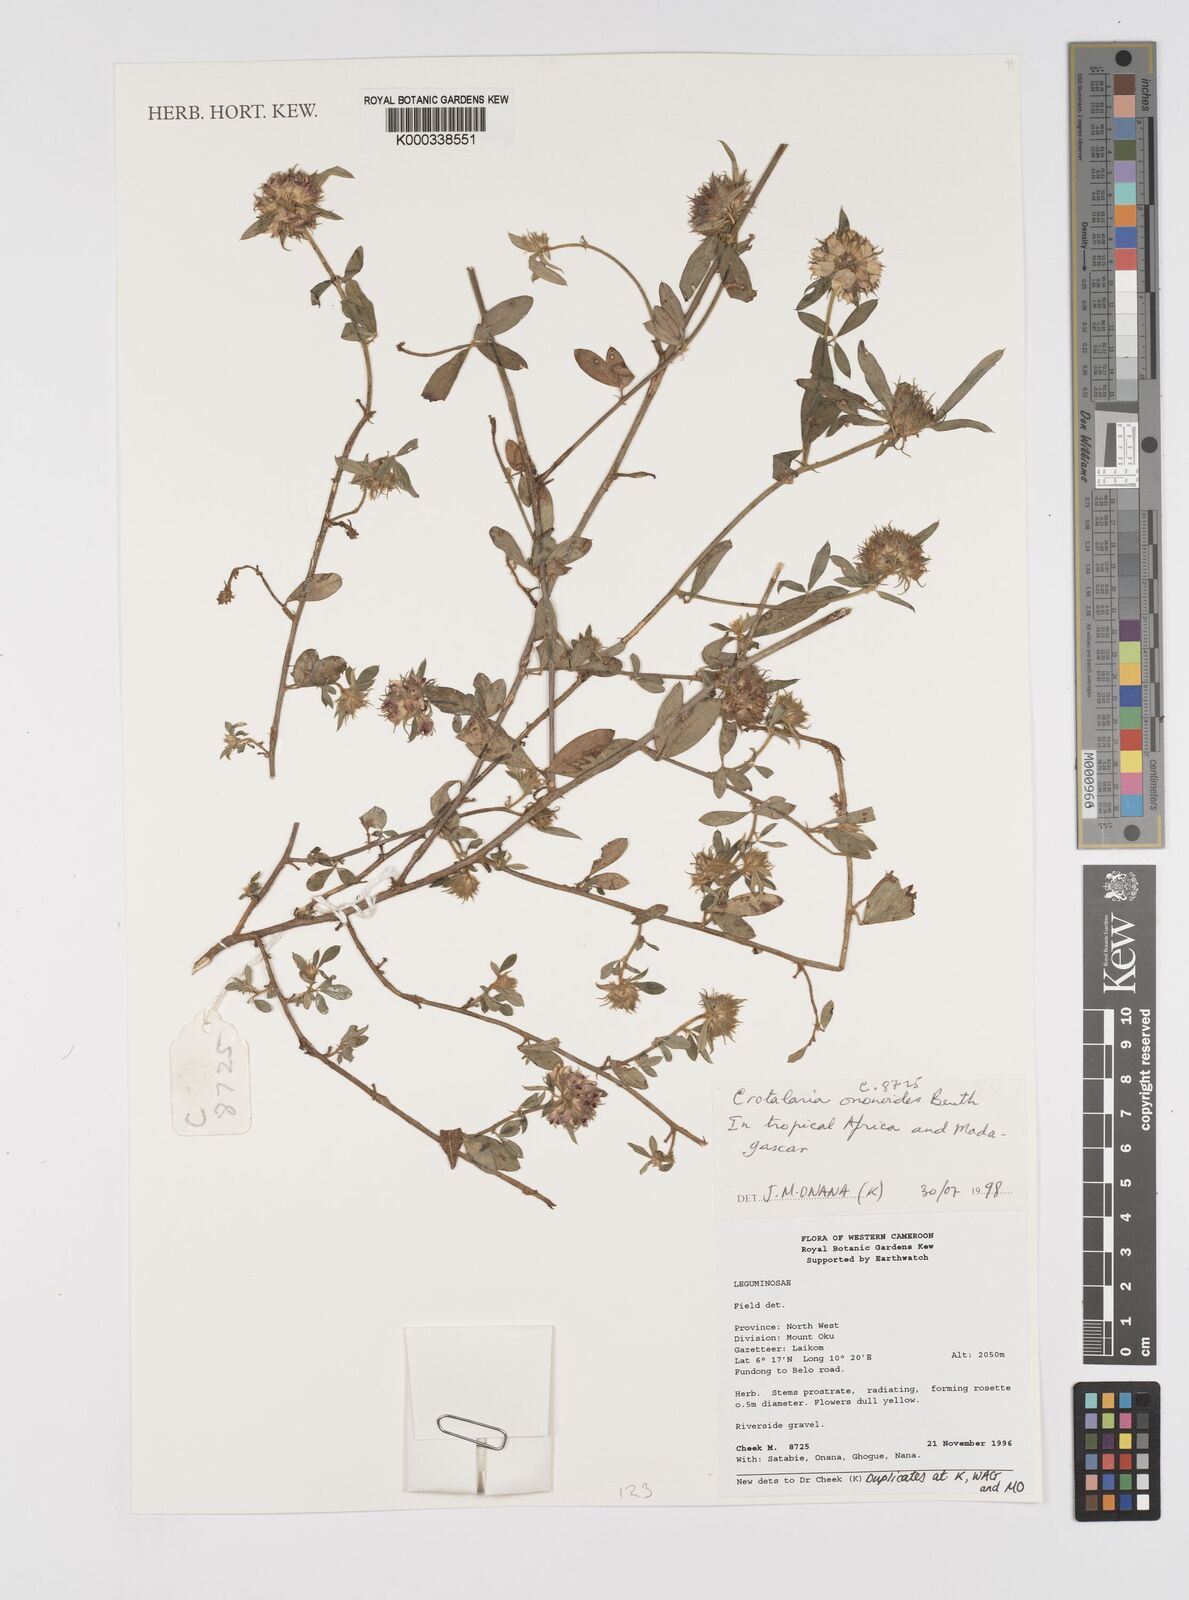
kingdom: Plantae
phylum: Tracheophyta
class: Magnoliopsida
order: Fabales
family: Fabaceae
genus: Crotalaria
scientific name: Crotalaria ononoides
